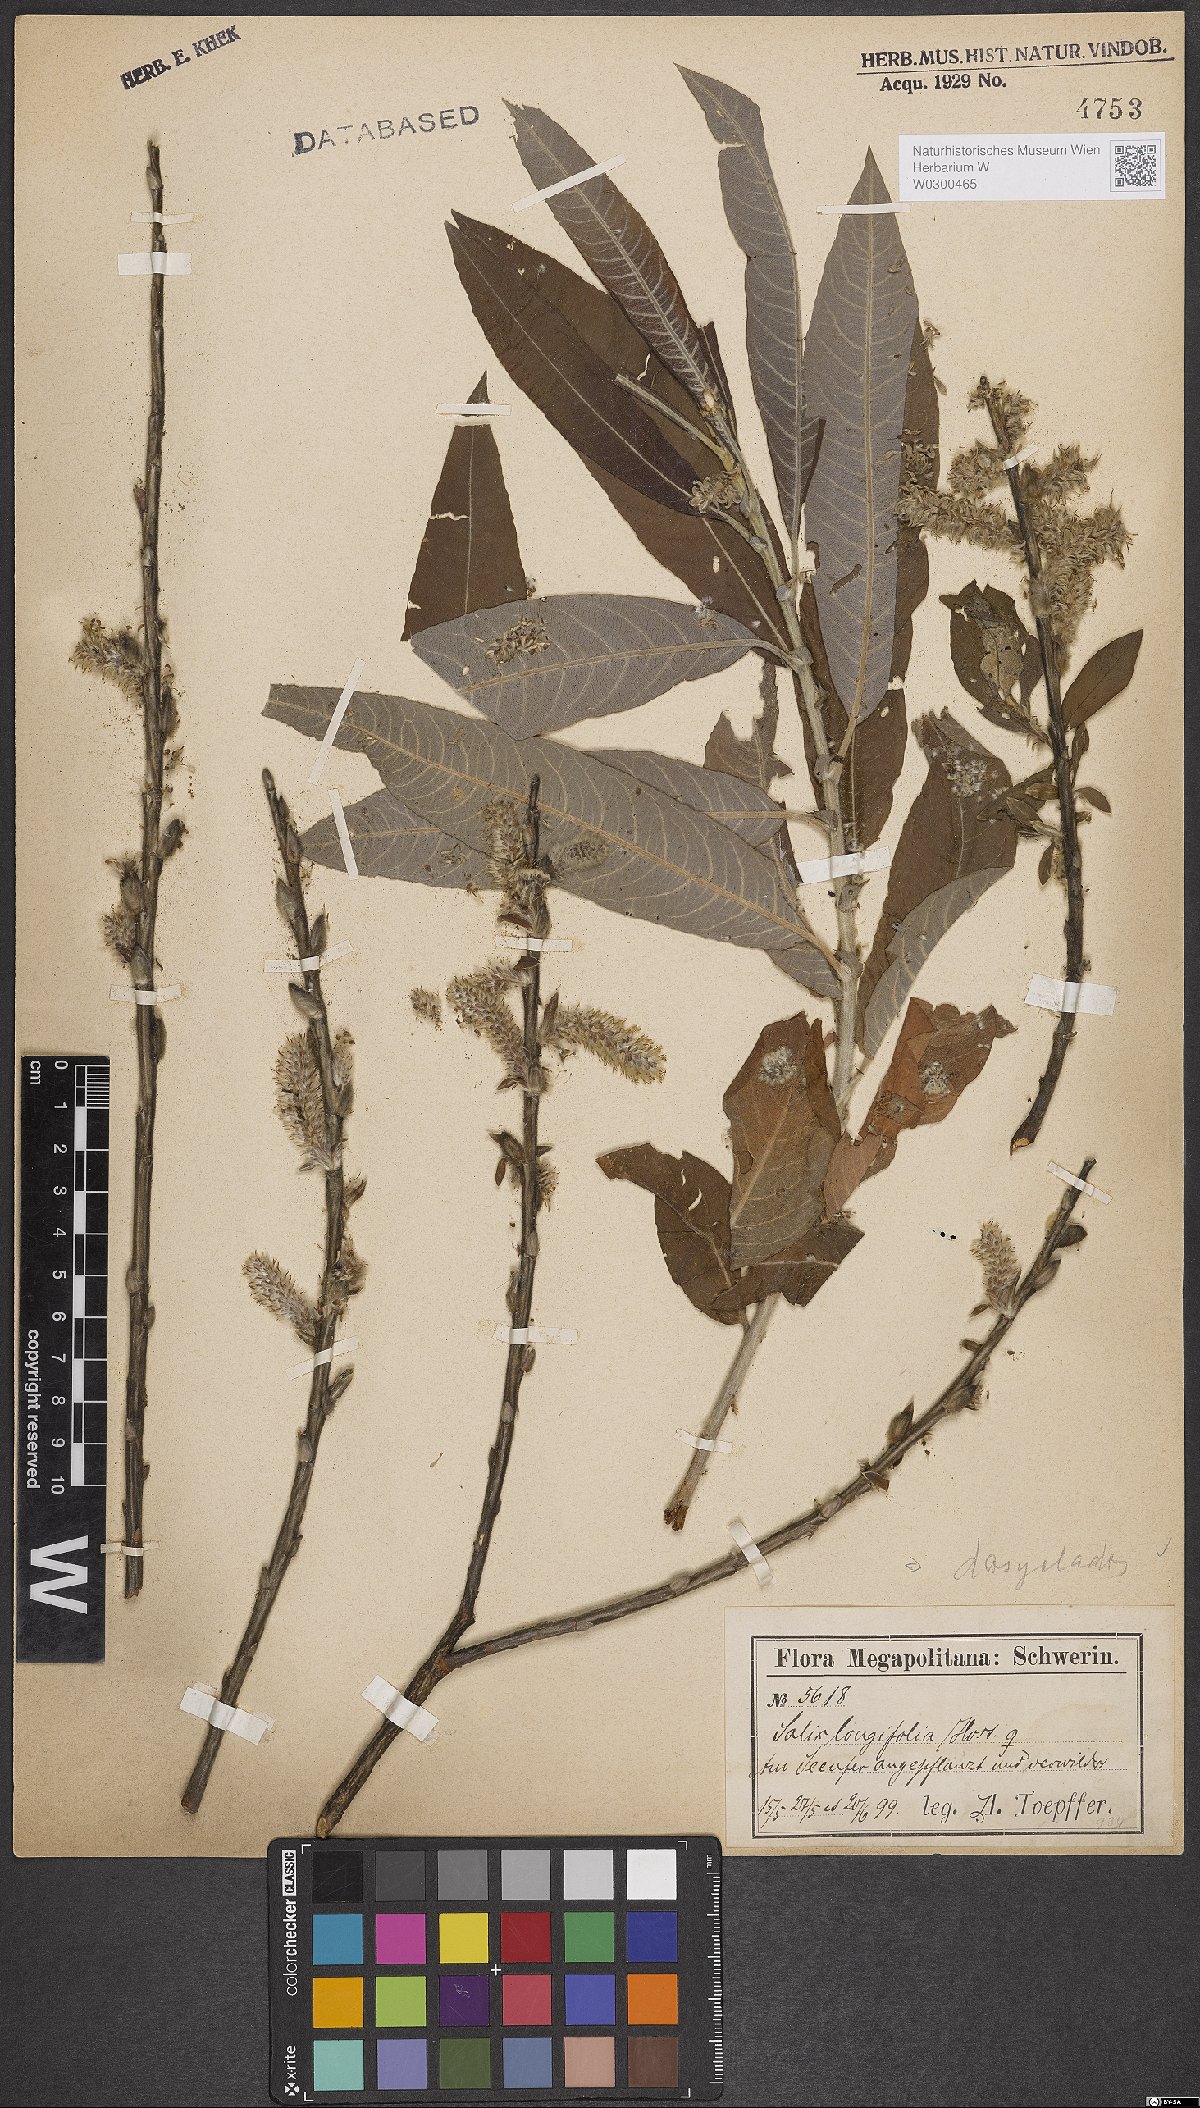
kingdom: Plantae
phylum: Tracheophyta
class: Magnoliopsida
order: Malpighiales
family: Salicaceae
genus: Salix
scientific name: Salix gmelinii
